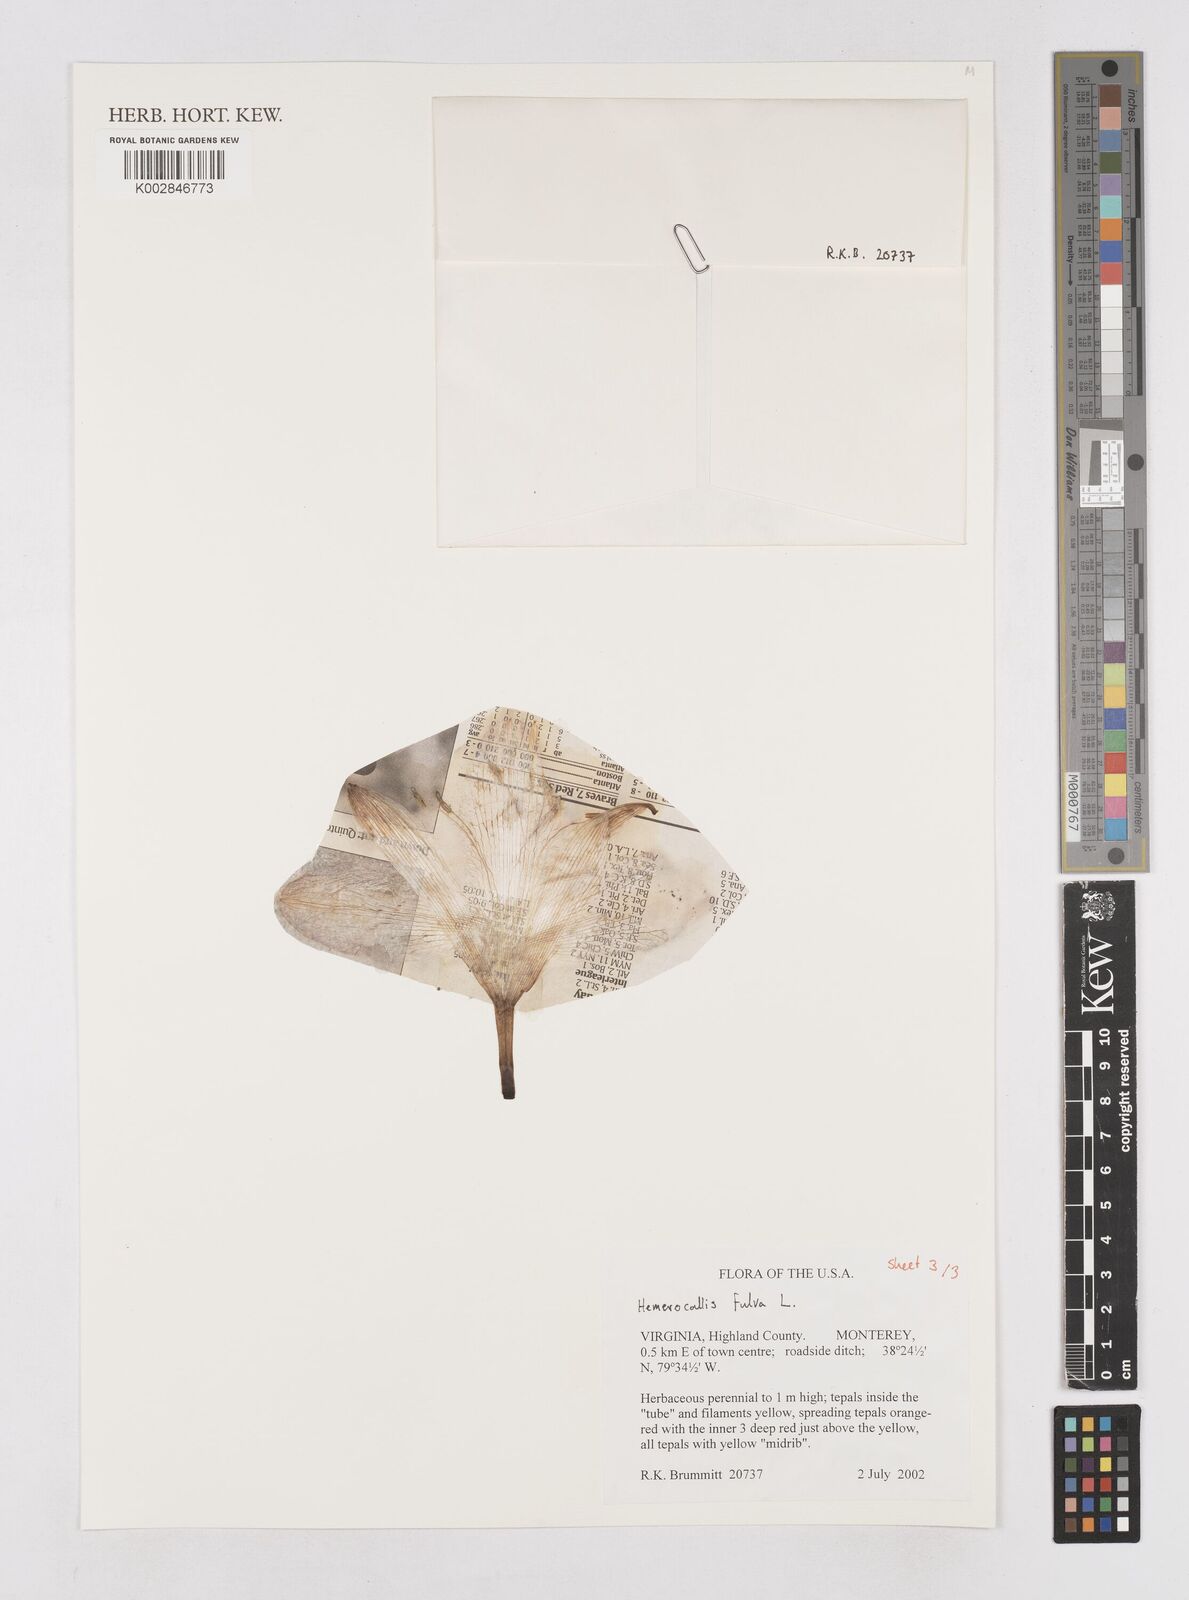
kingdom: Plantae
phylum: Tracheophyta
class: Liliopsida
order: Asparagales
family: Asphodelaceae
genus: Hemerocallis
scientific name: Hemerocallis fulva
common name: Orange day-lily
